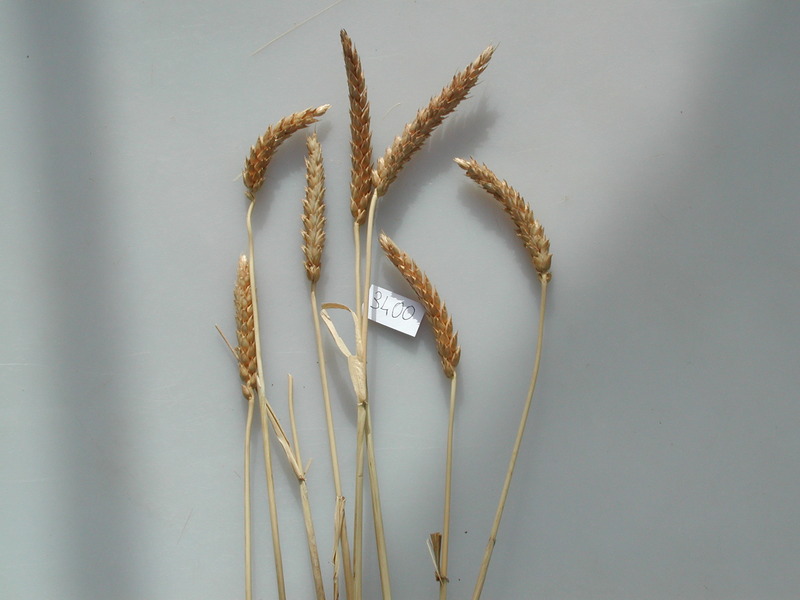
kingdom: Plantae
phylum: Tracheophyta
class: Liliopsida
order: Poales
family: Poaceae
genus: Triticum
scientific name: Triticum aestivum
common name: Wheat
